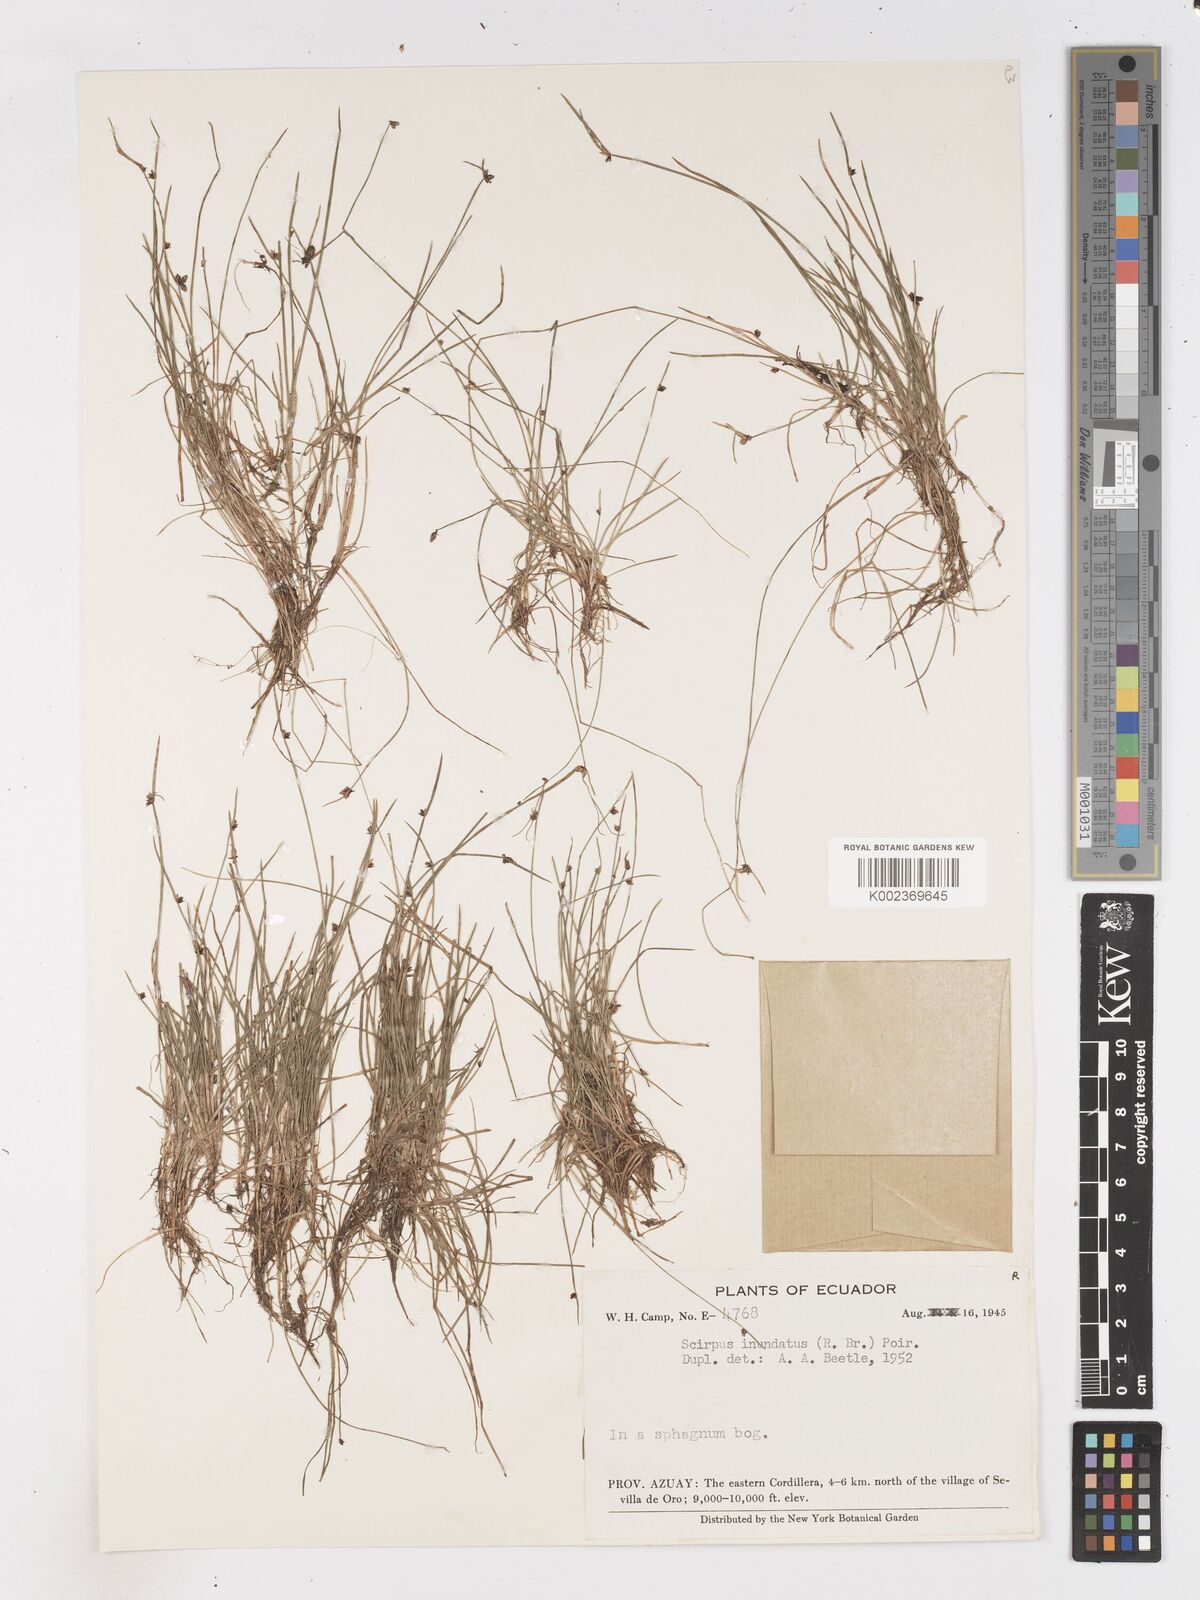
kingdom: Plantae
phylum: Tracheophyta
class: Liliopsida
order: Poales
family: Cyperaceae
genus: Isolepis
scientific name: Isolepis inundata
